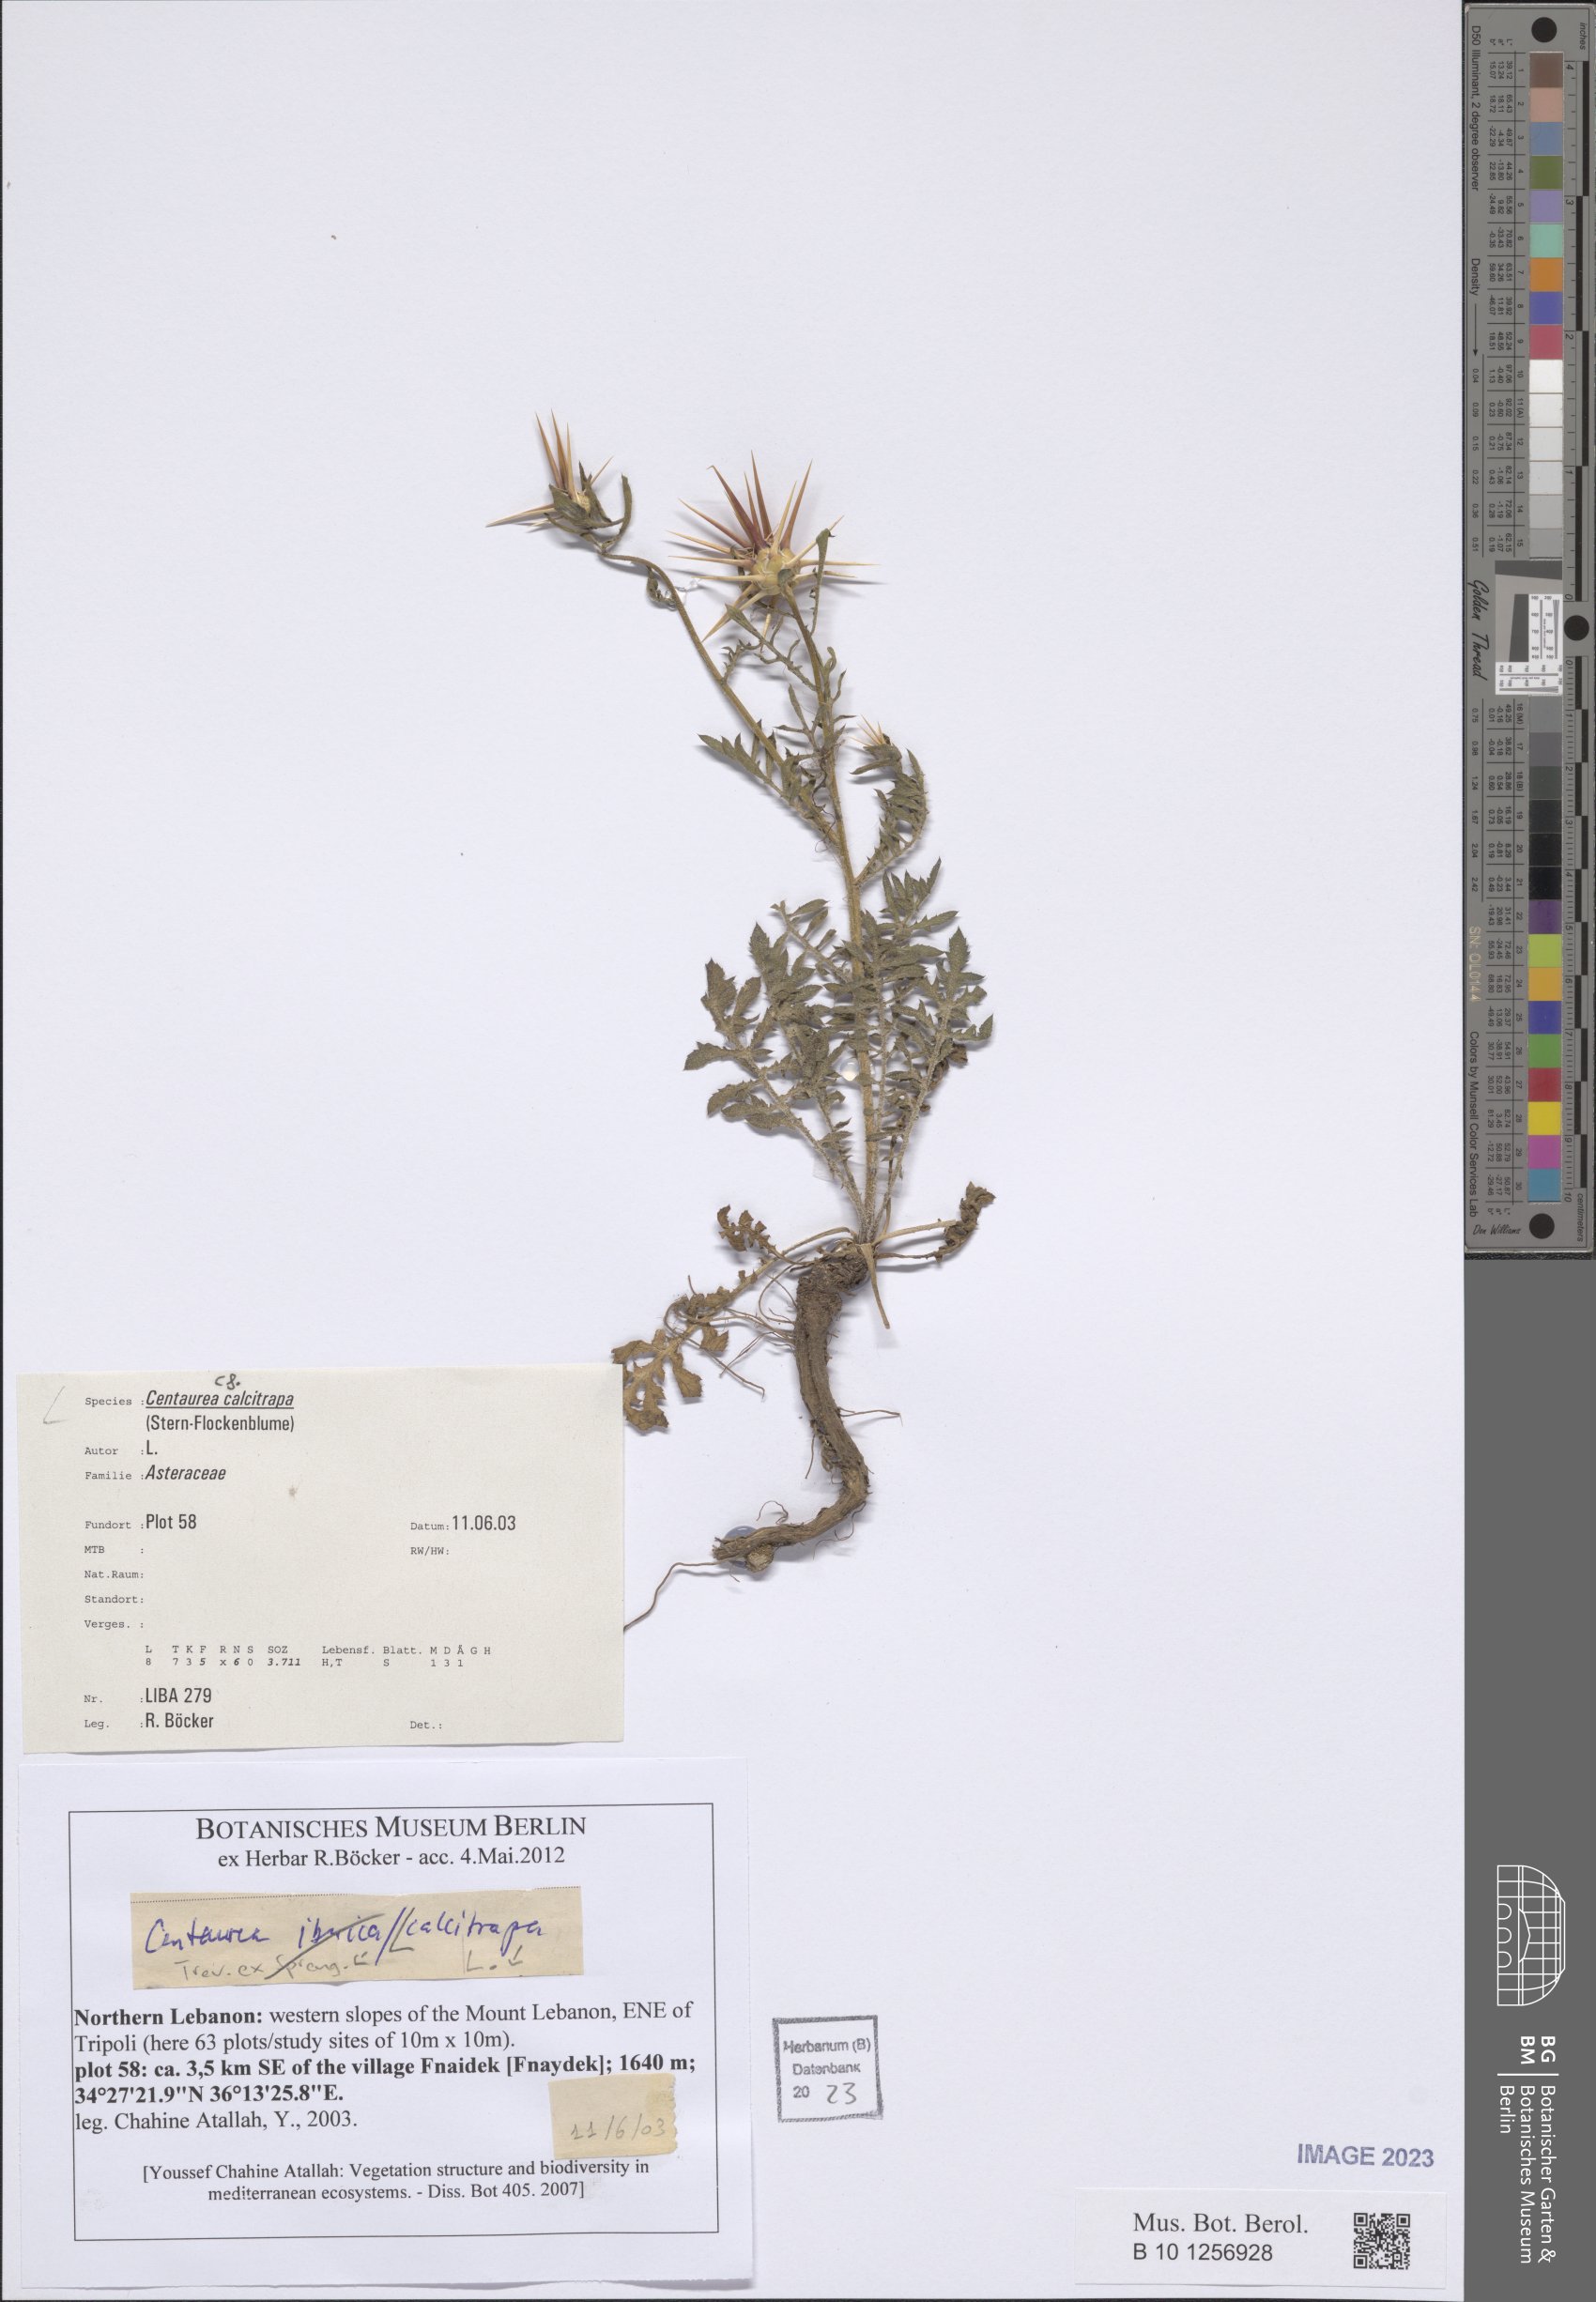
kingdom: Plantae
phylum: Tracheophyta
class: Magnoliopsida
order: Asterales
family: Asteraceae
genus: Centaurea
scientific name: Centaurea calcitrapa
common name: Red star-thistle
